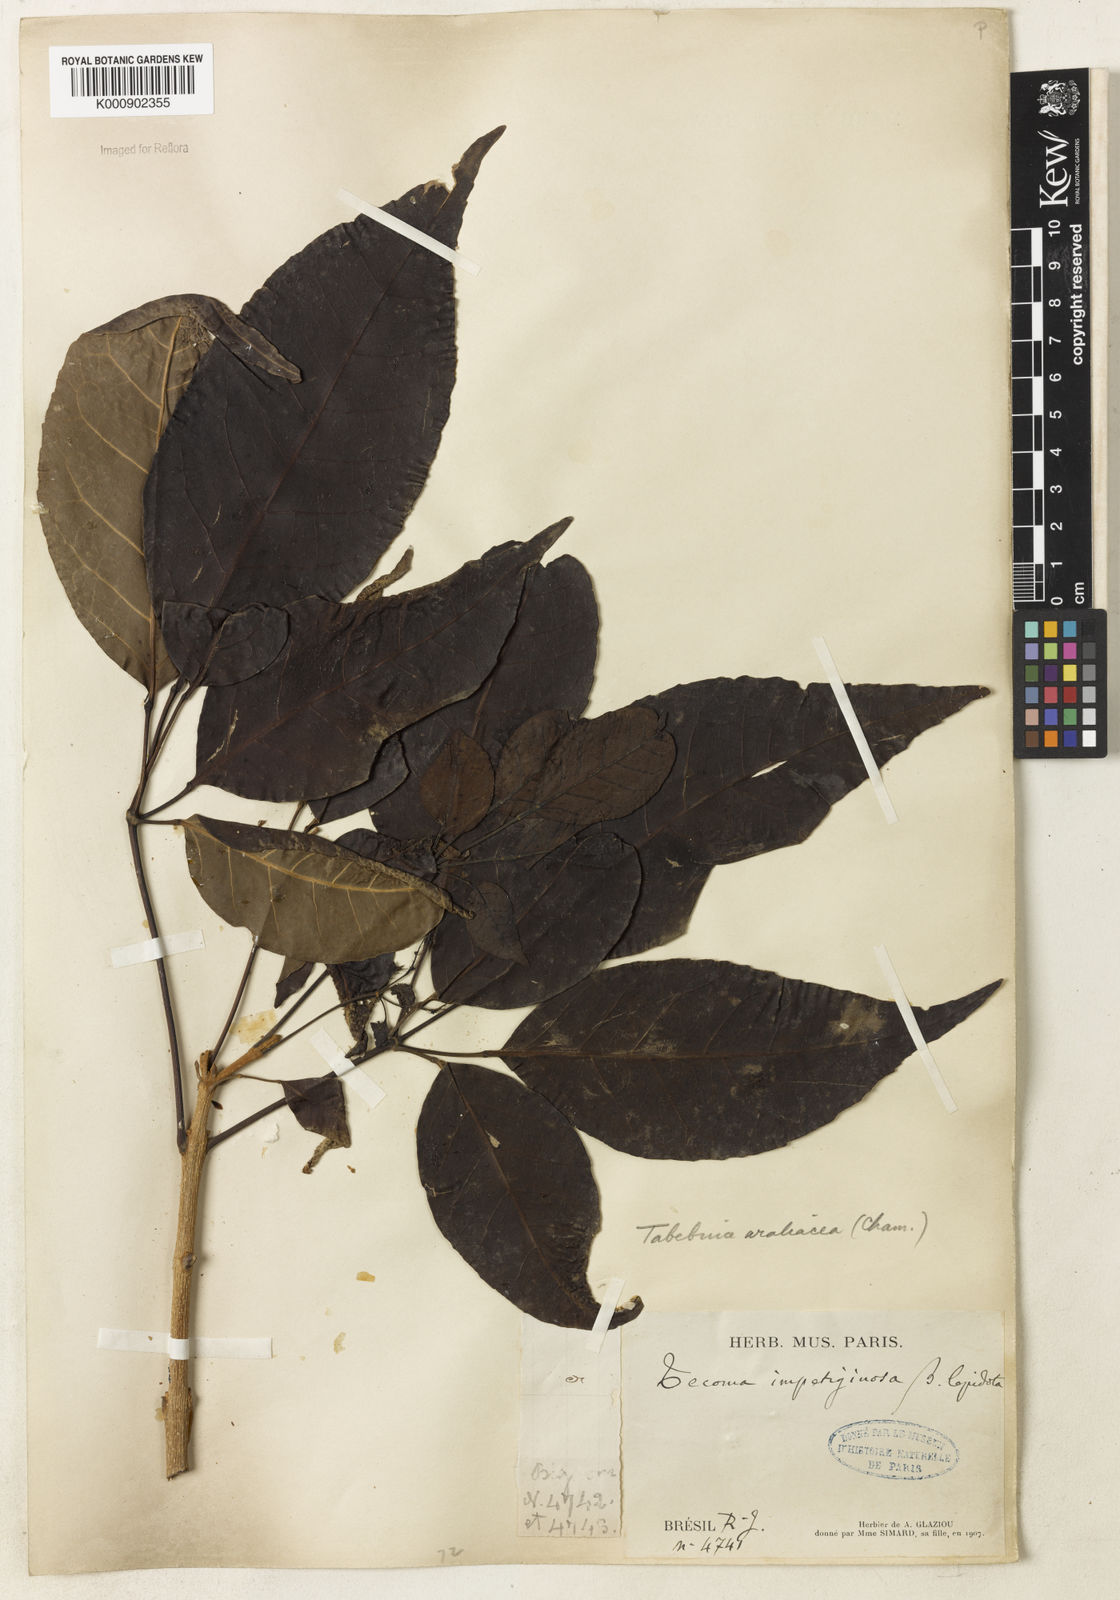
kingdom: Plantae
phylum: Tracheophyta
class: Magnoliopsida
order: Lamiales
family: Bignoniaceae
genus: Handroanthus
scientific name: Handroanthus serratifolius
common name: Yellow ipe
